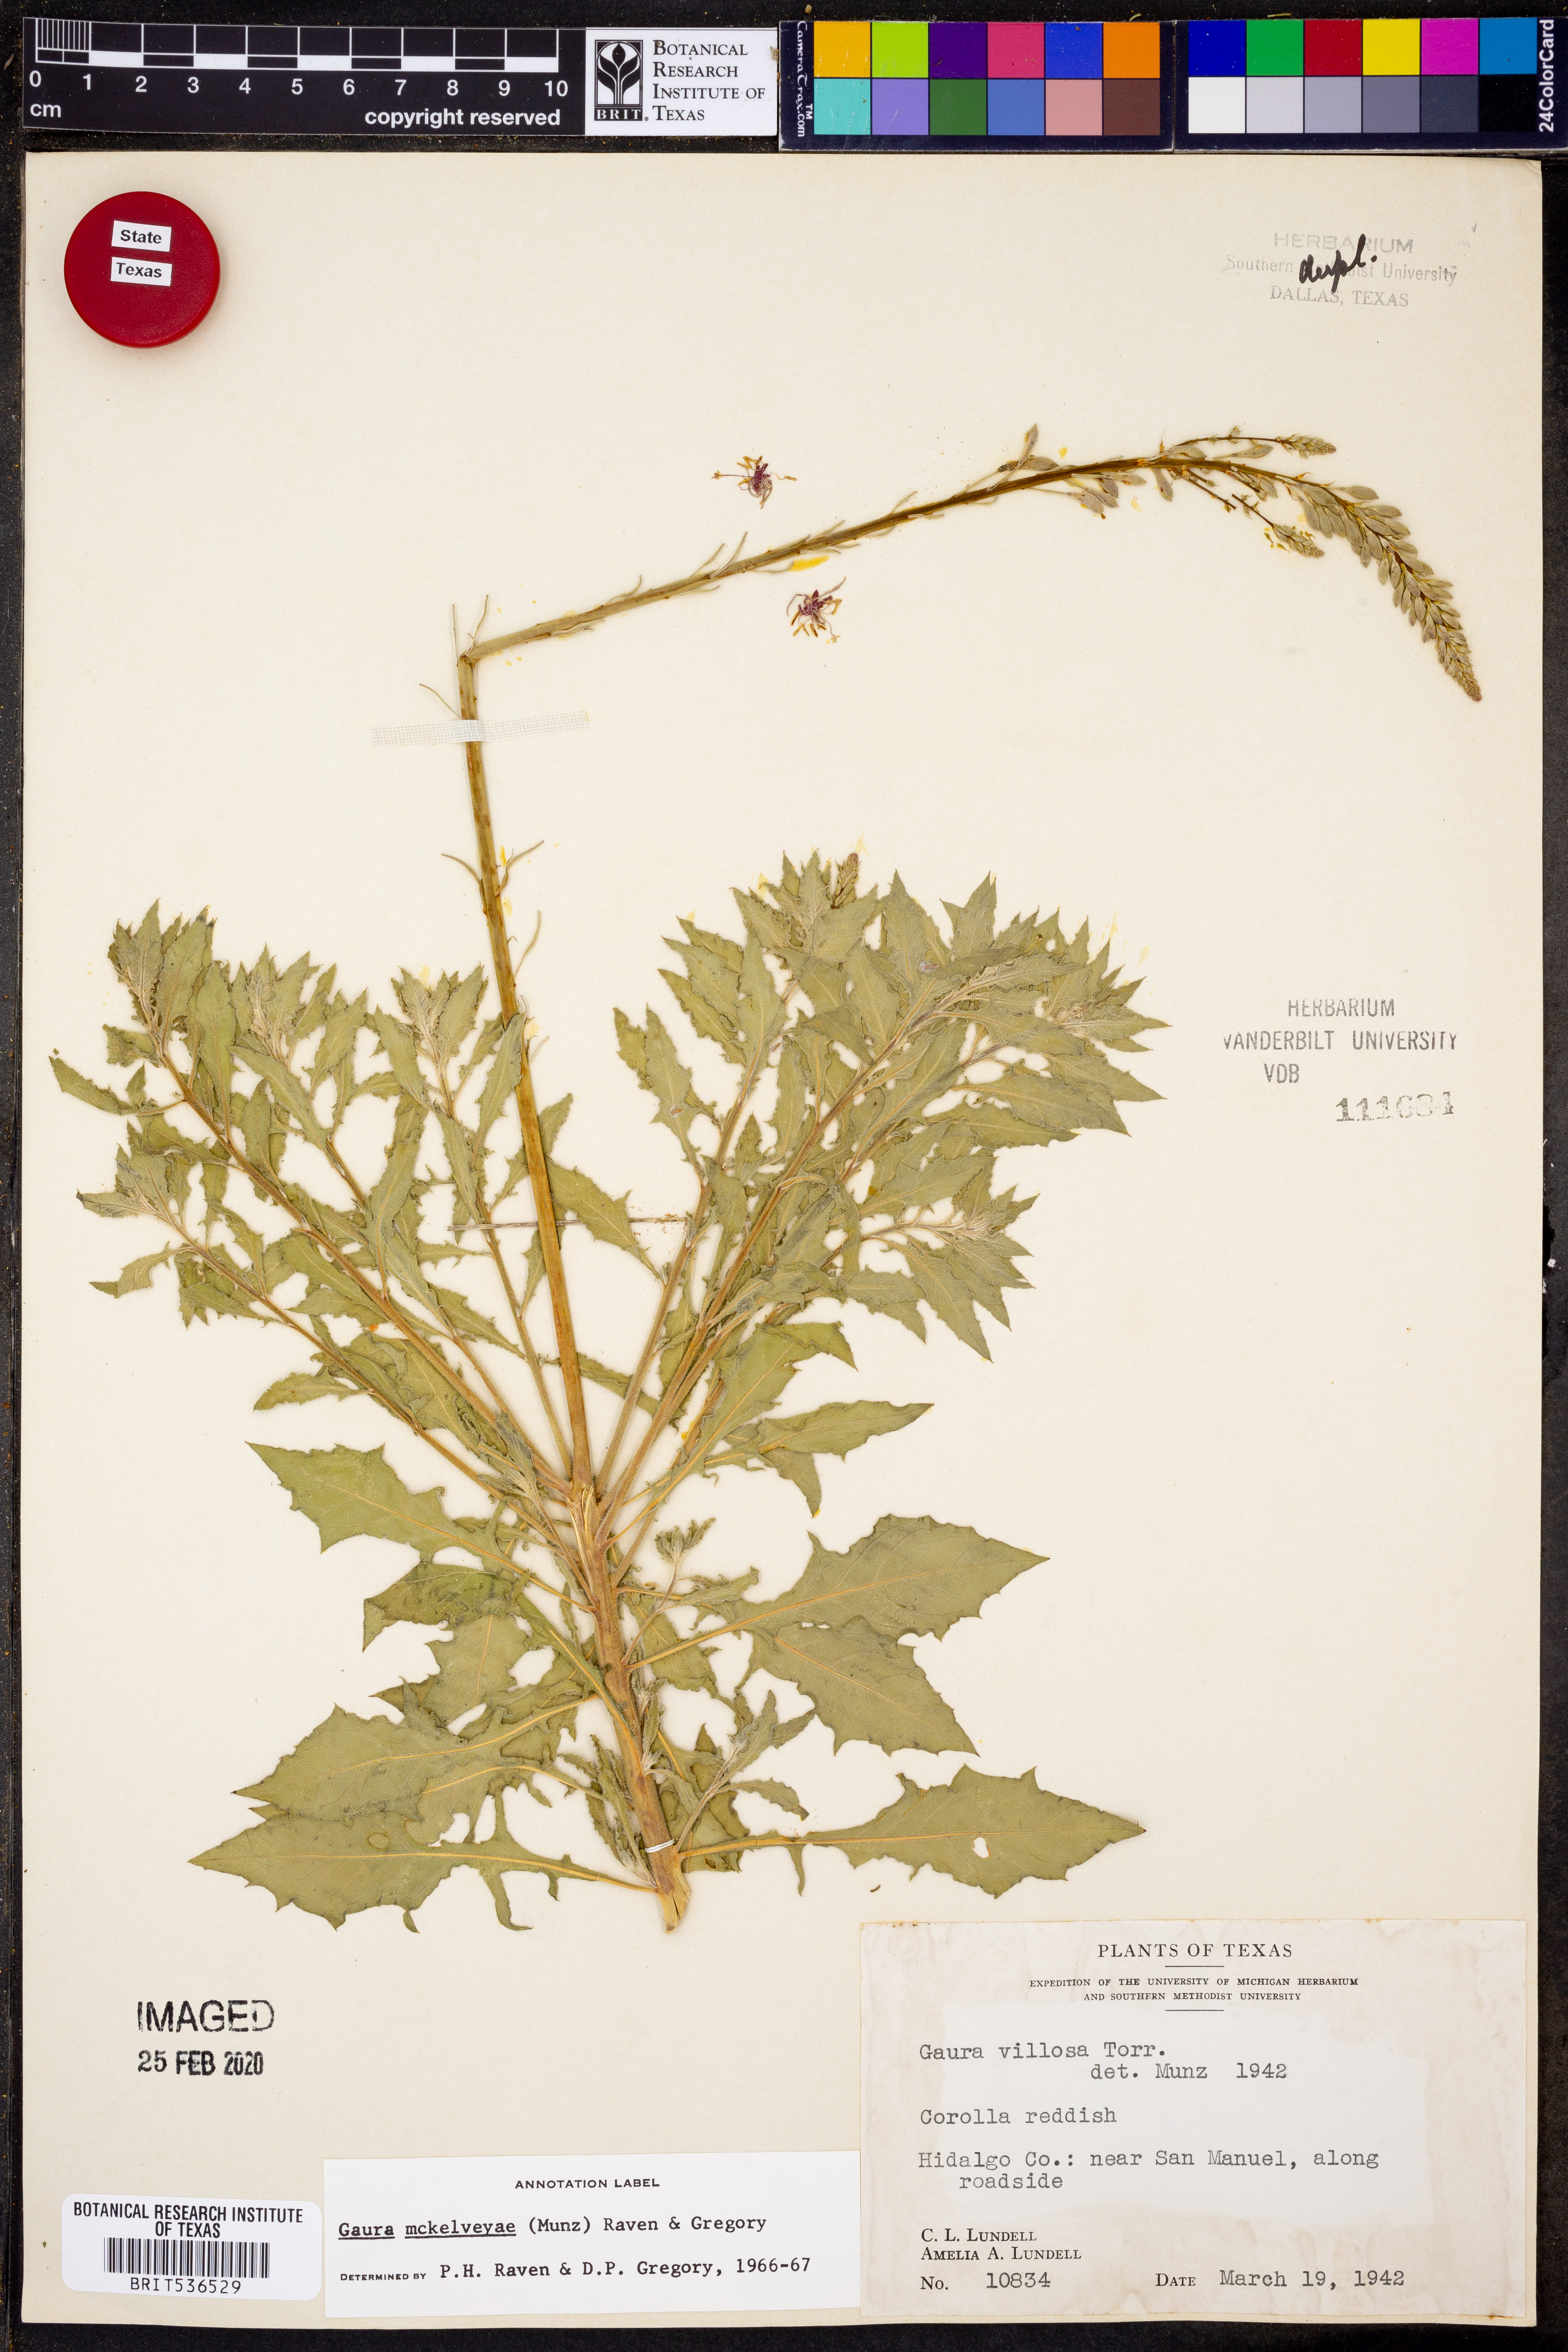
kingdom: Plantae
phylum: Tracheophyta
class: Magnoliopsida
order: Myrtales
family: Onagraceae
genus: Oenothera
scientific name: Oenothera mckelveyae
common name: Mckelvey's beeblossom
